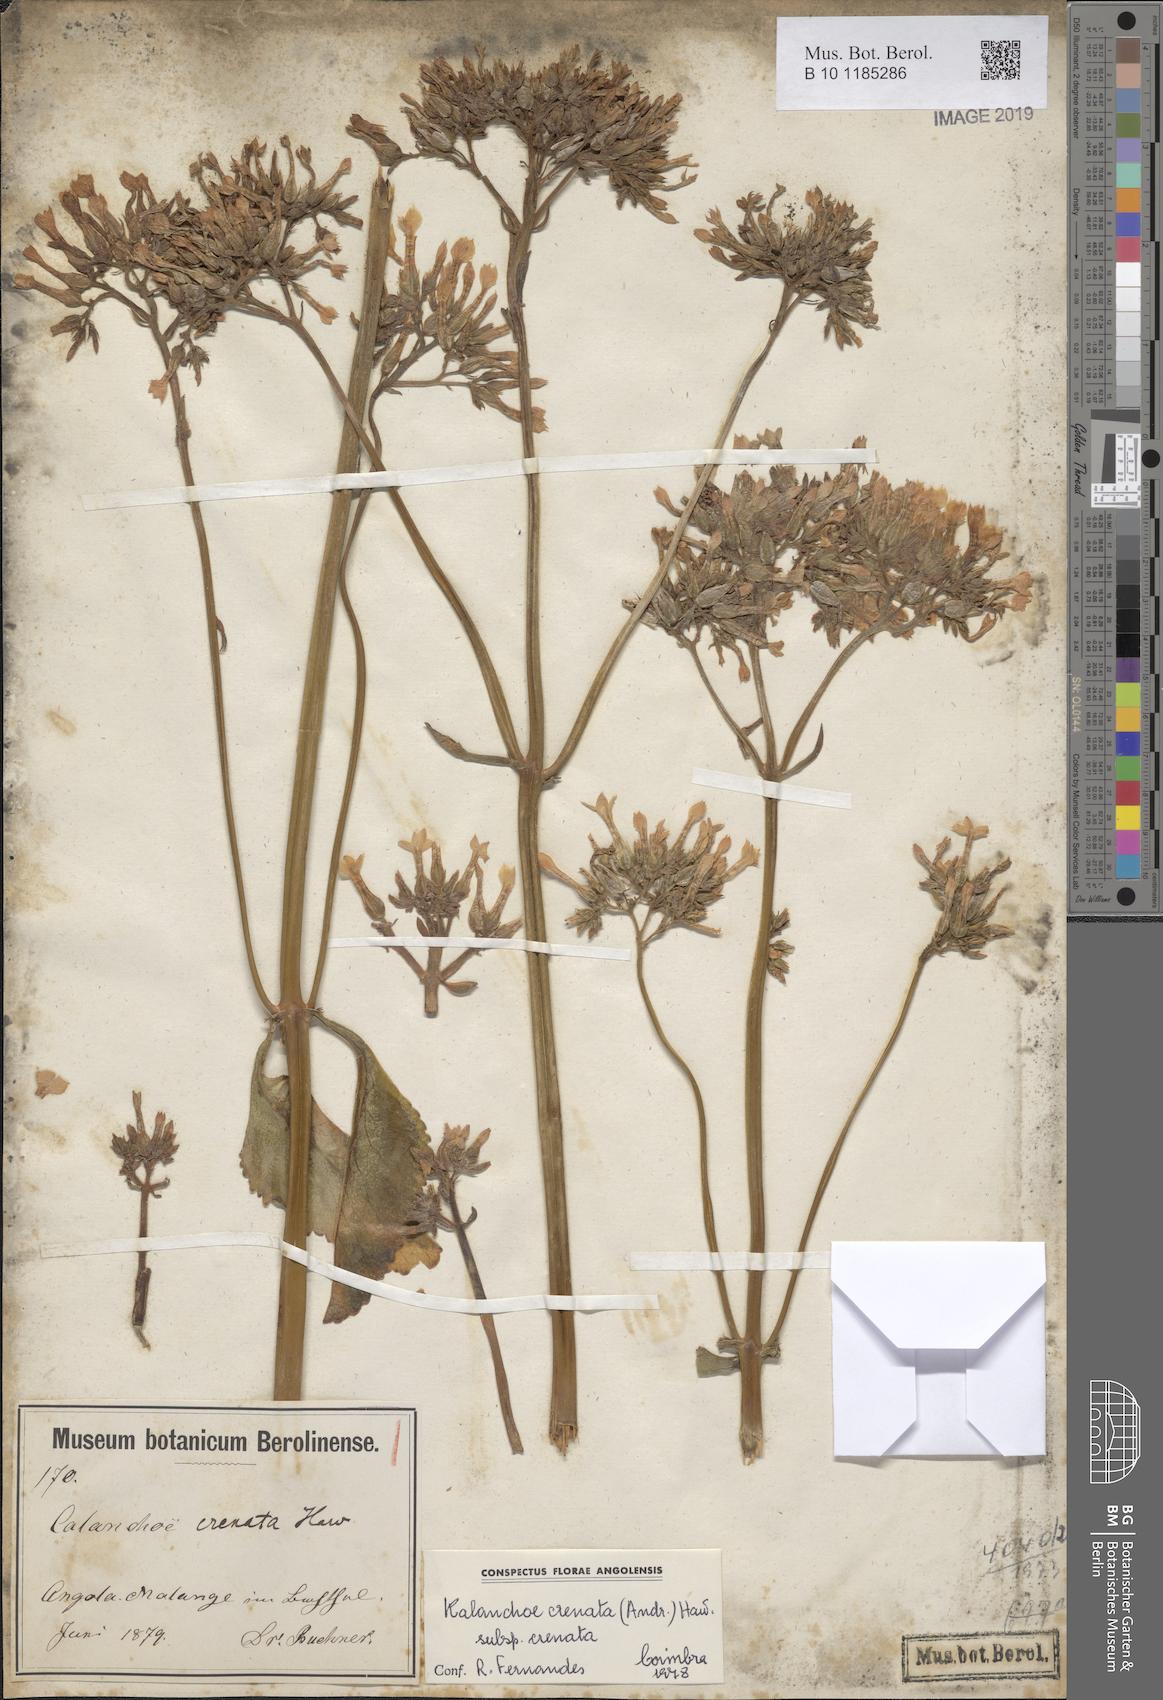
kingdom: Plantae
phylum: Tracheophyta
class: Magnoliopsida
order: Saxifragales
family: Crassulaceae
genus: Kalanchoe
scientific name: Kalanchoe crenata
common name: Neverdie
